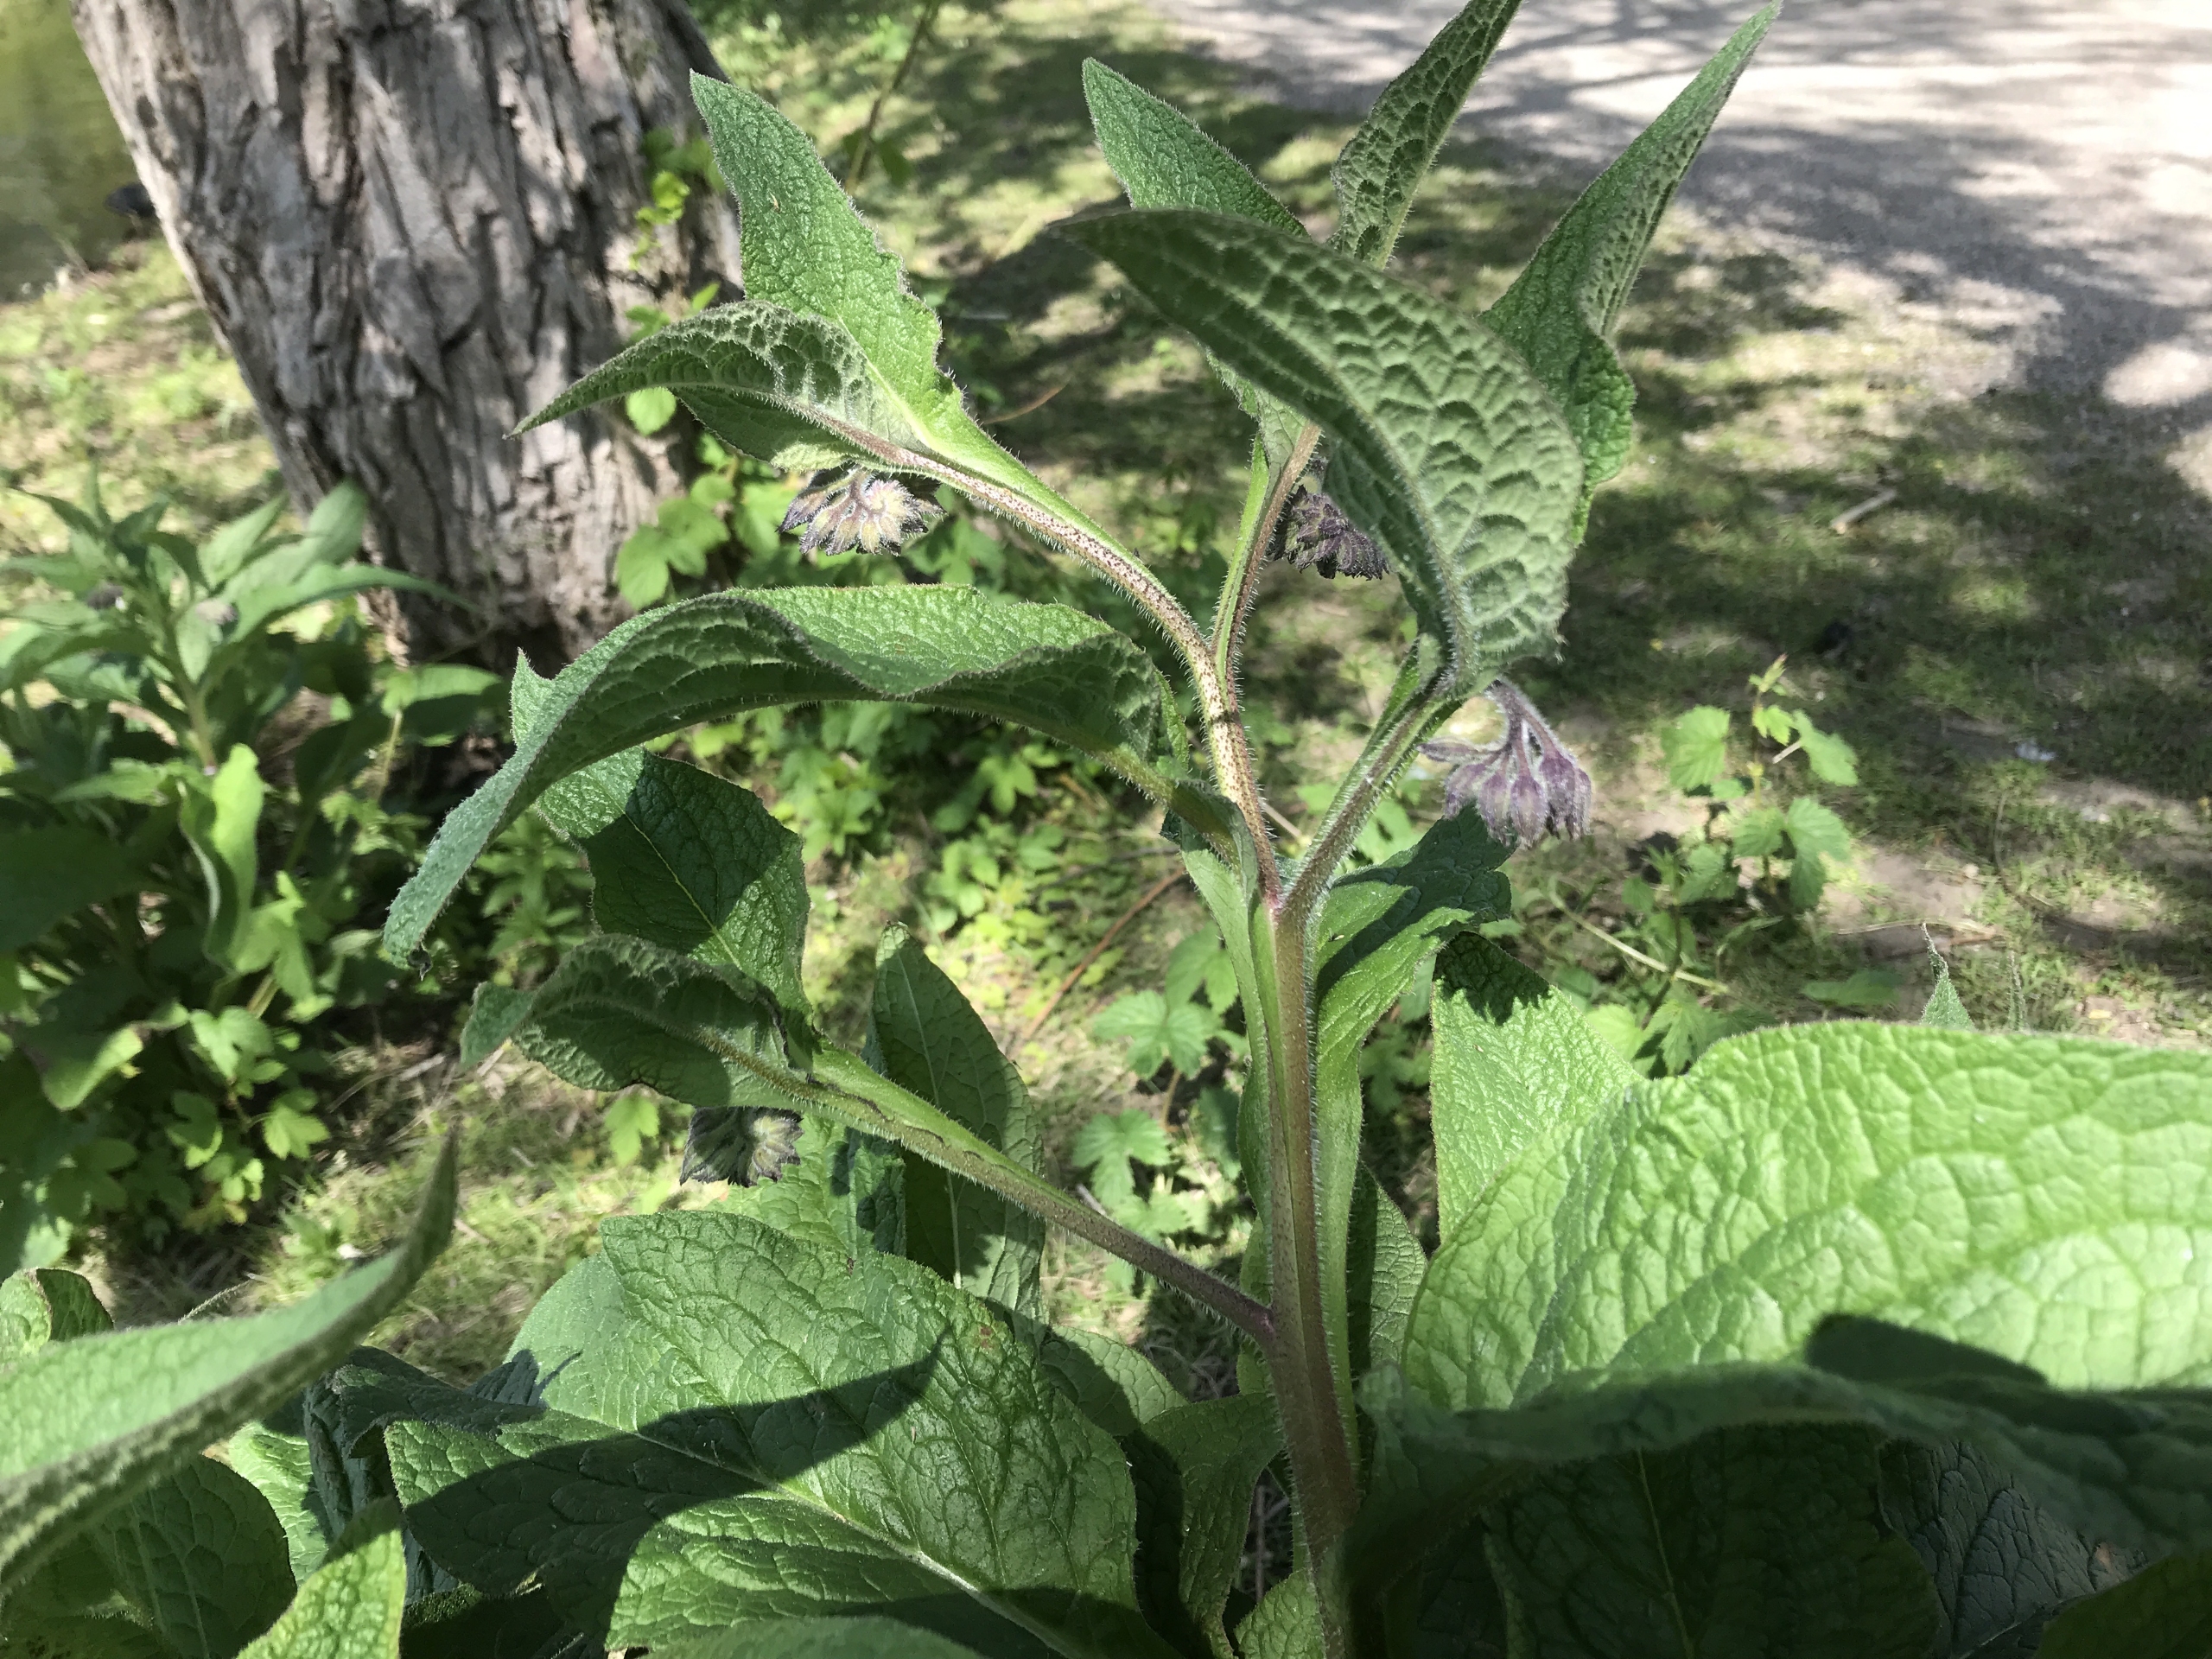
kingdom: Plantae
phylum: Tracheophyta
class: Magnoliopsida
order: Boraginales
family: Boraginaceae
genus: Symphytum
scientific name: Symphytum officinale
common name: Læge-kulsukker
